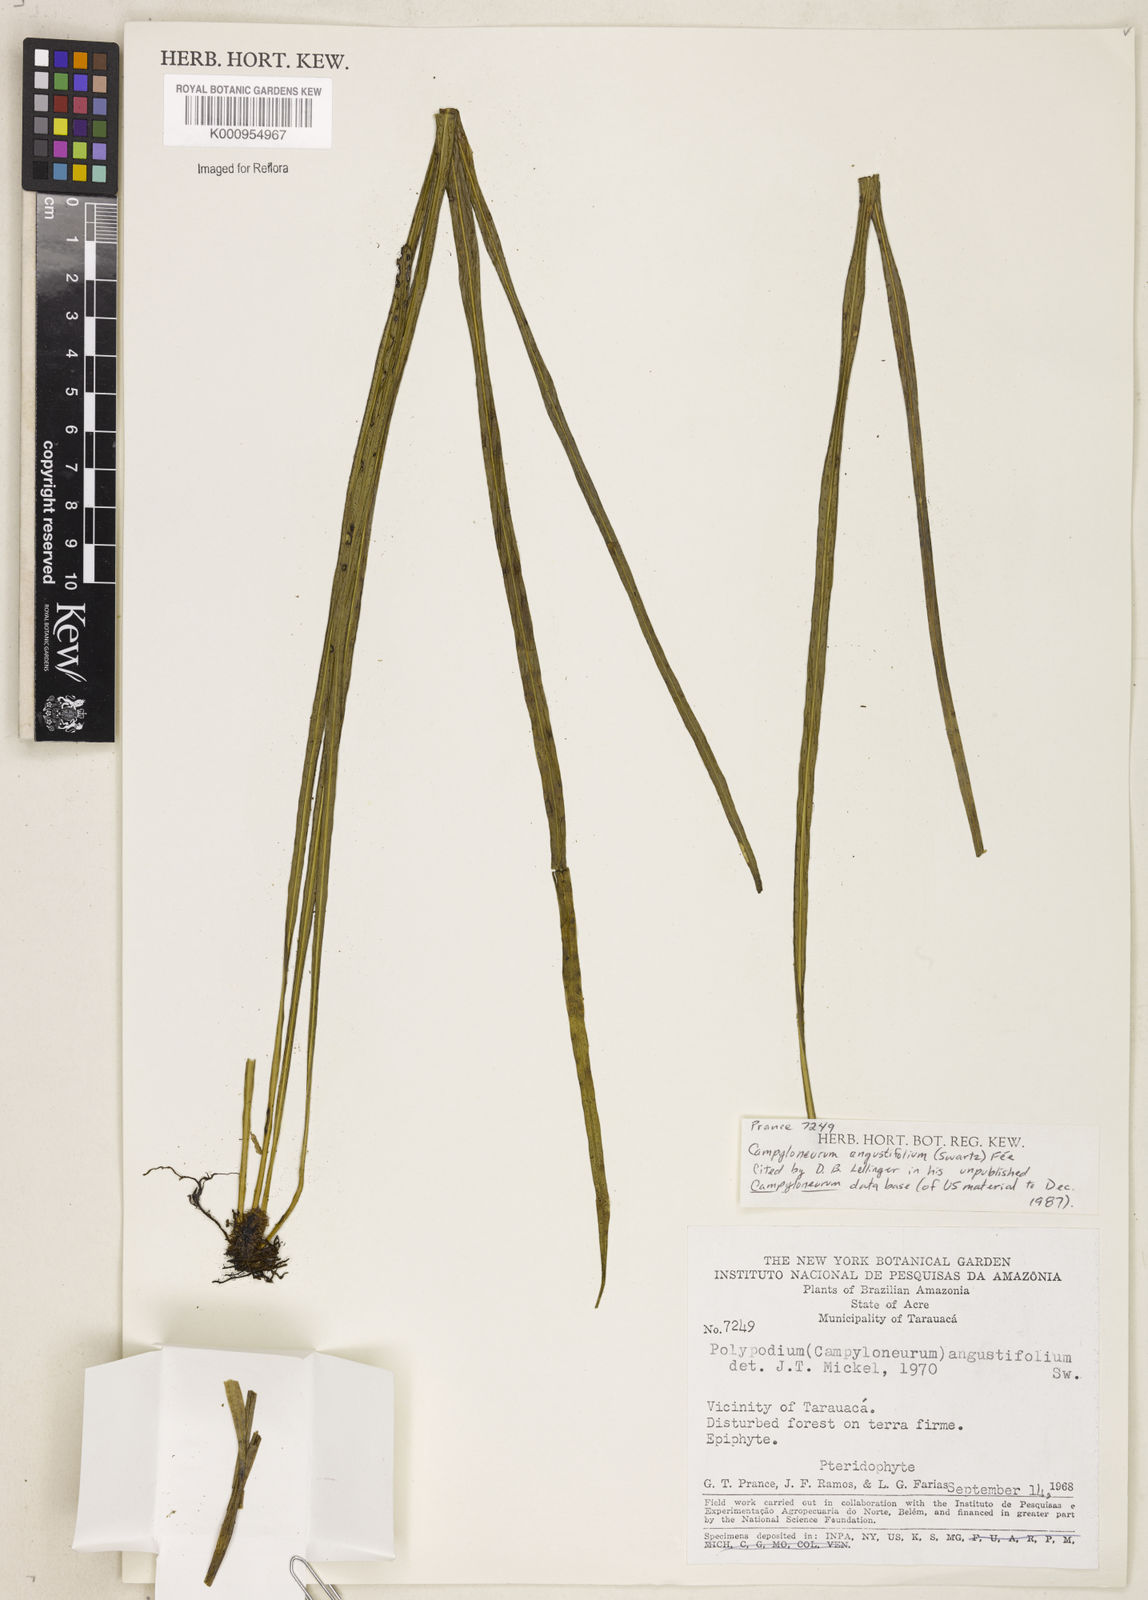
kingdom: Plantae
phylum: Tracheophyta
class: Polypodiopsida
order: Polypodiales
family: Polypodiaceae
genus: Campyloneurum
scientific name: Campyloneurum
